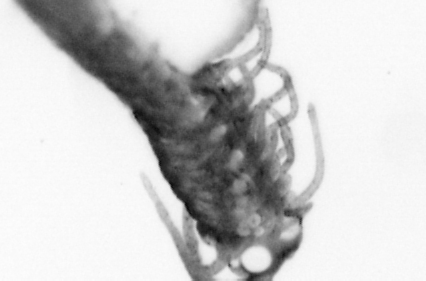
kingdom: Animalia
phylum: Annelida
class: Polychaeta
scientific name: Polychaeta
